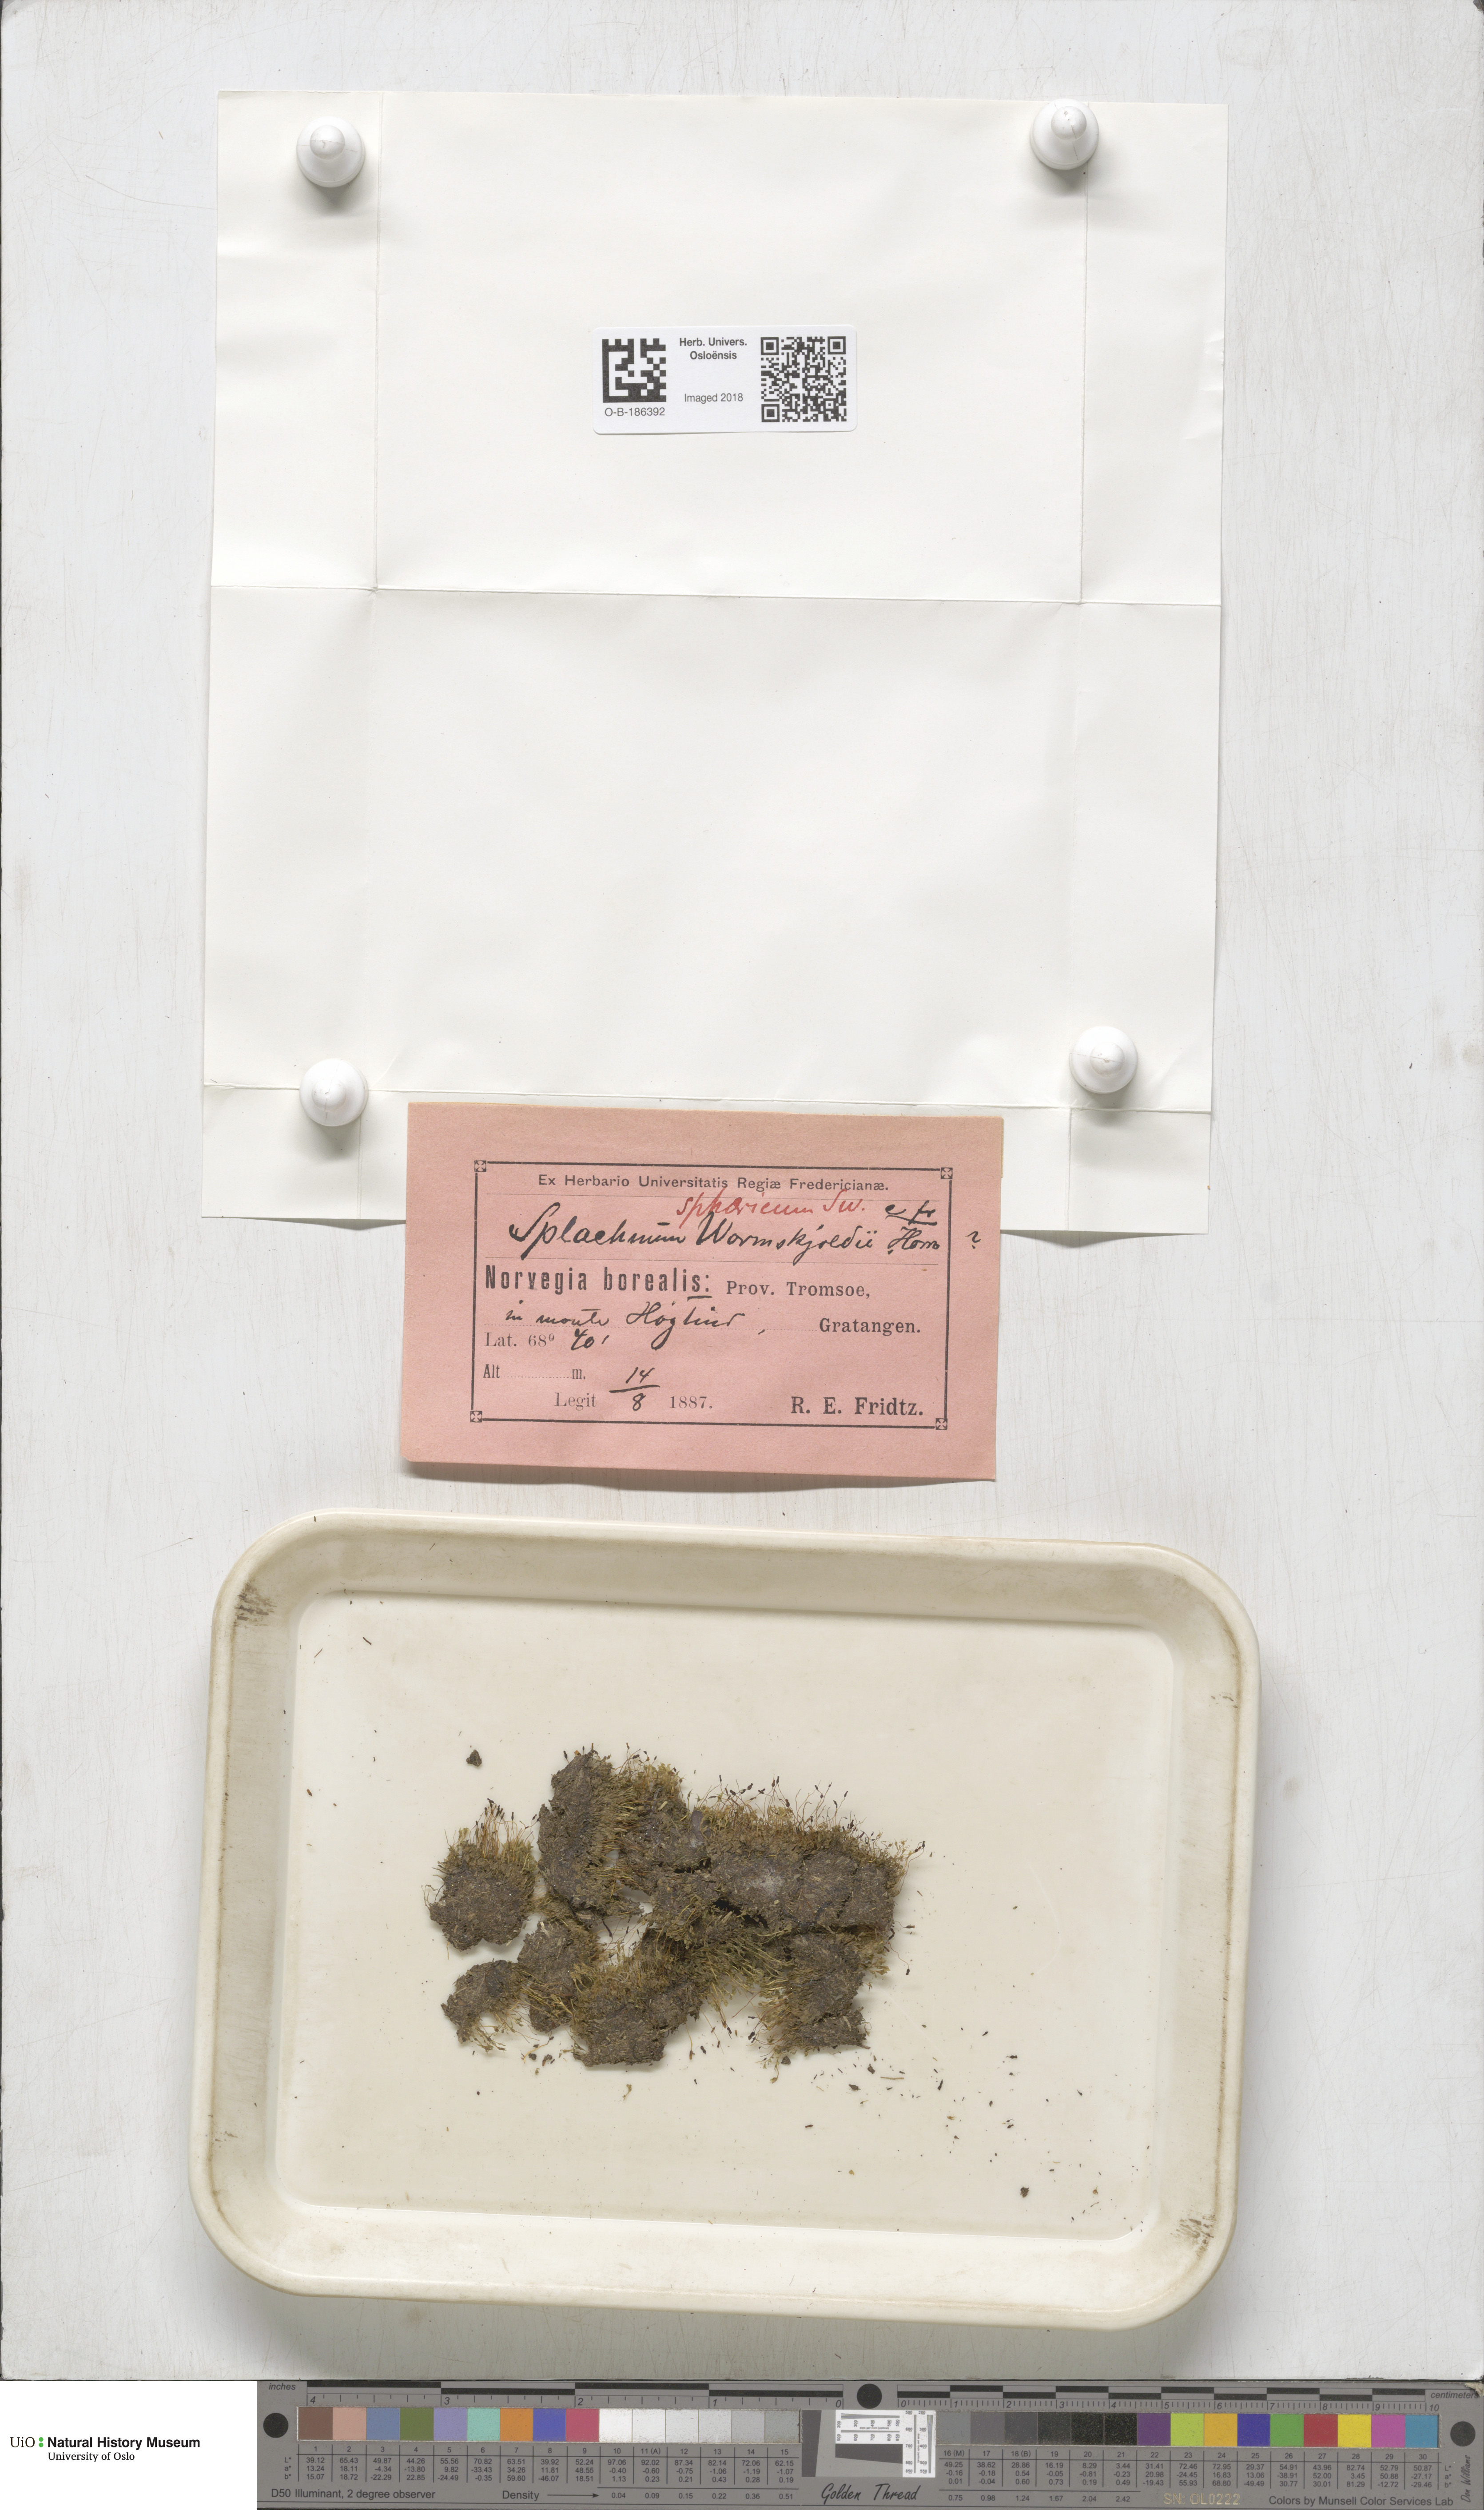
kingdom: Plantae
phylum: Bryophyta
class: Bryopsida
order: Splachnales
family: Splachnaceae
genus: Splachnum
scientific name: Splachnum sphaericum
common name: Round-fruited dung moss
